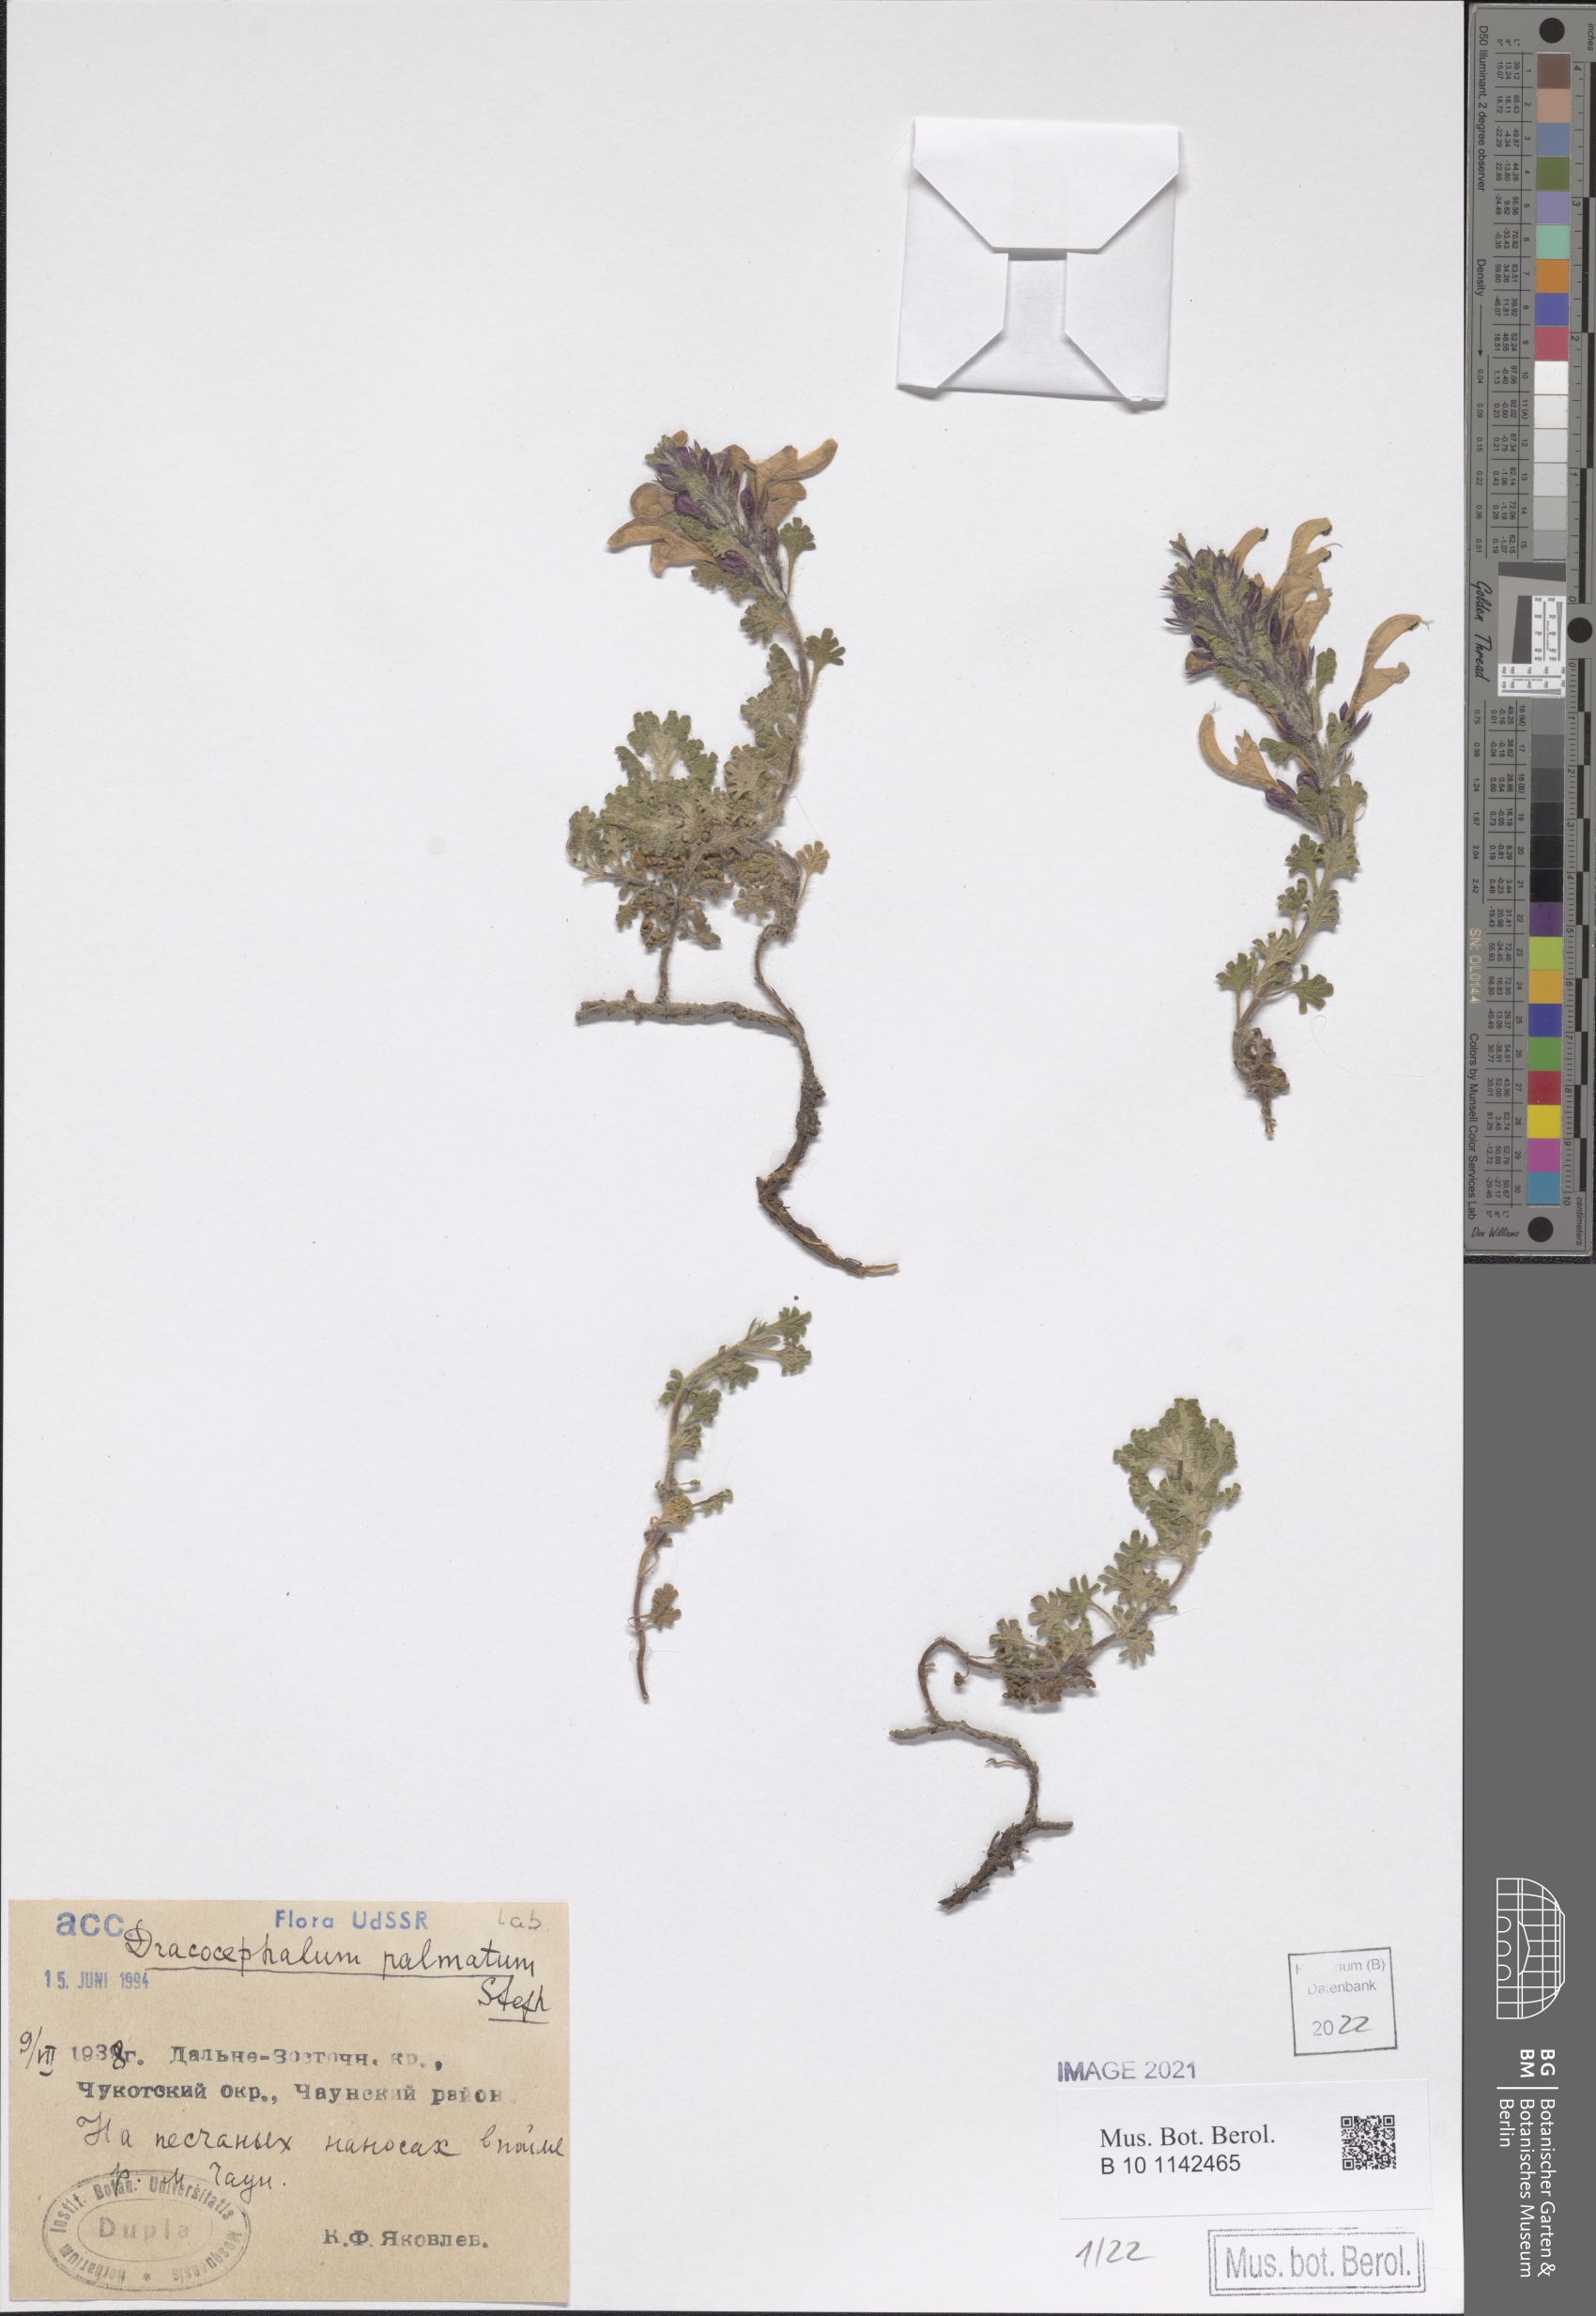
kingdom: Plantae
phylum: Tracheophyta
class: Magnoliopsida
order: Lamiales
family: Lamiaceae
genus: Dracocephalum
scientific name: Dracocephalum palmatum
